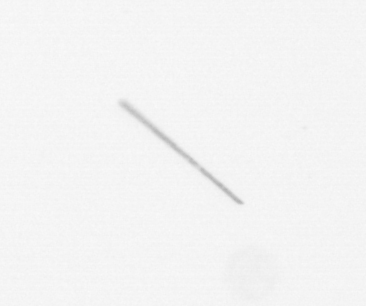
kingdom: Chromista
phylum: Ochrophyta
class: Bacillariophyceae
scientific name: Bacillariophyceae
